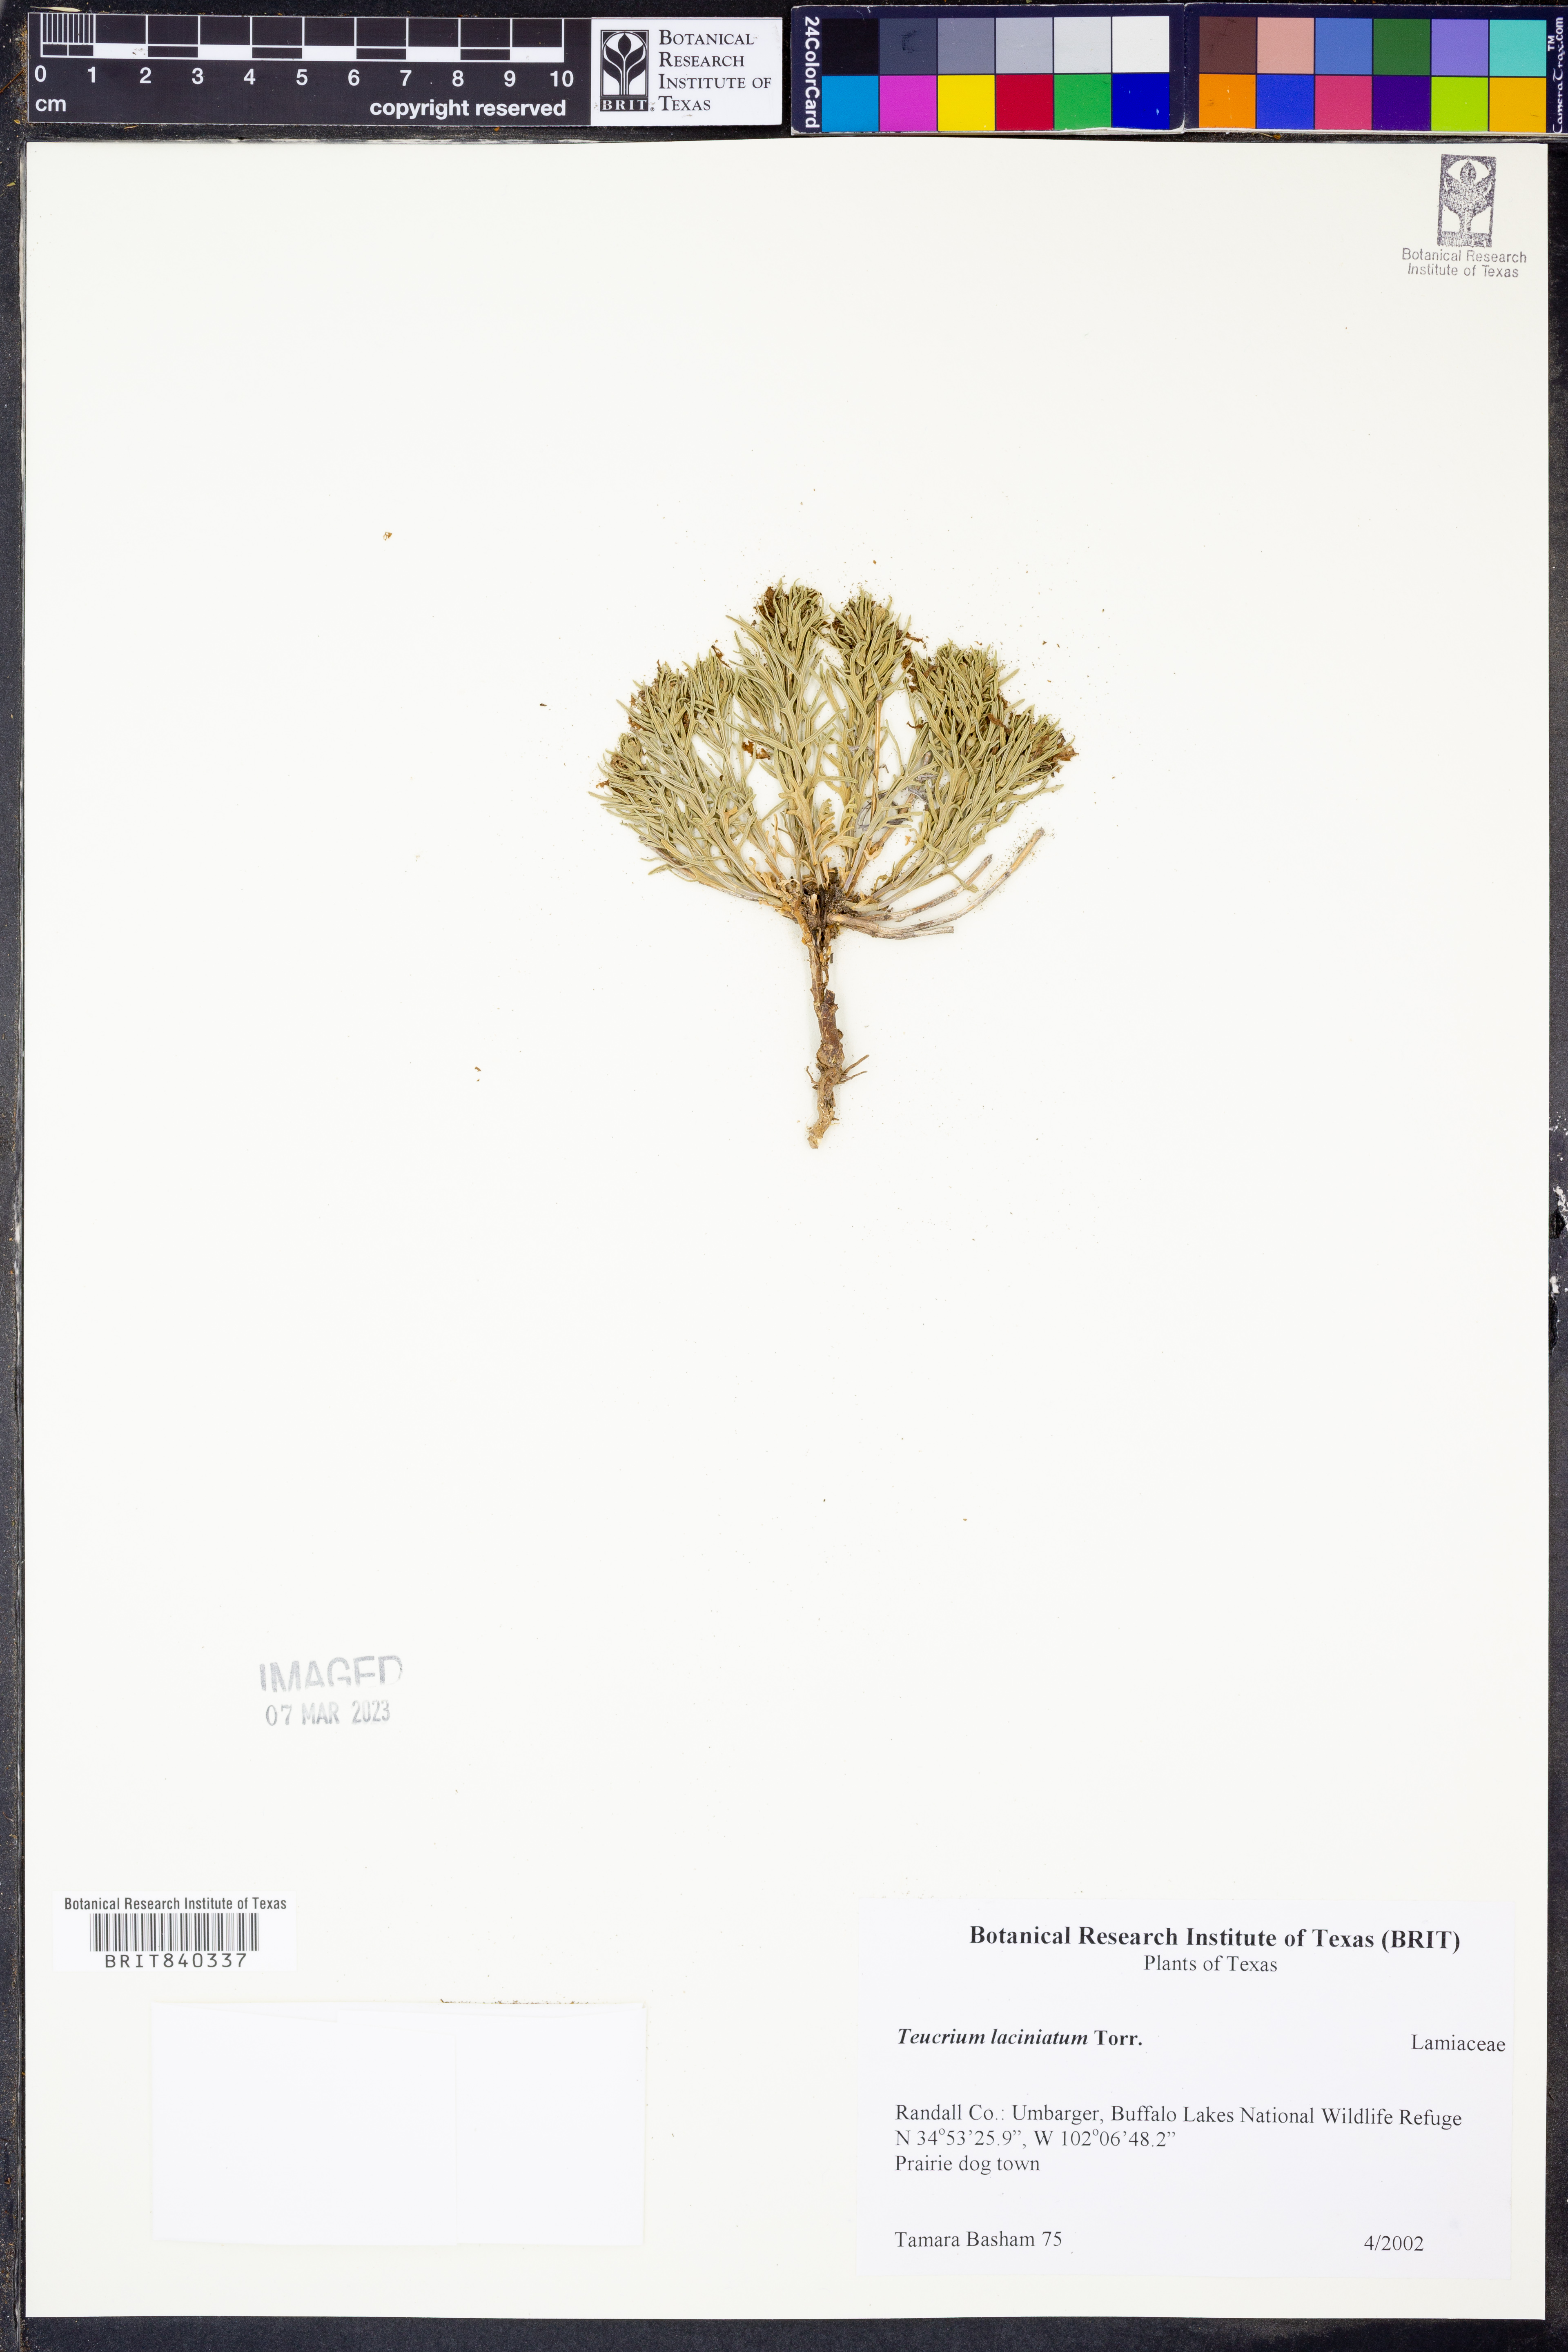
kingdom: Plantae
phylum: Tracheophyta
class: Magnoliopsida
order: Lamiales
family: Lamiaceae
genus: Teucrium
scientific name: Teucrium laciniatum
